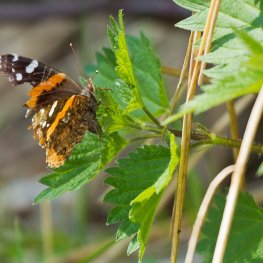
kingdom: Animalia
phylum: Arthropoda
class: Insecta
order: Lepidoptera
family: Nymphalidae
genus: Vanessa
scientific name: Vanessa atalanta
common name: Red Admiral
